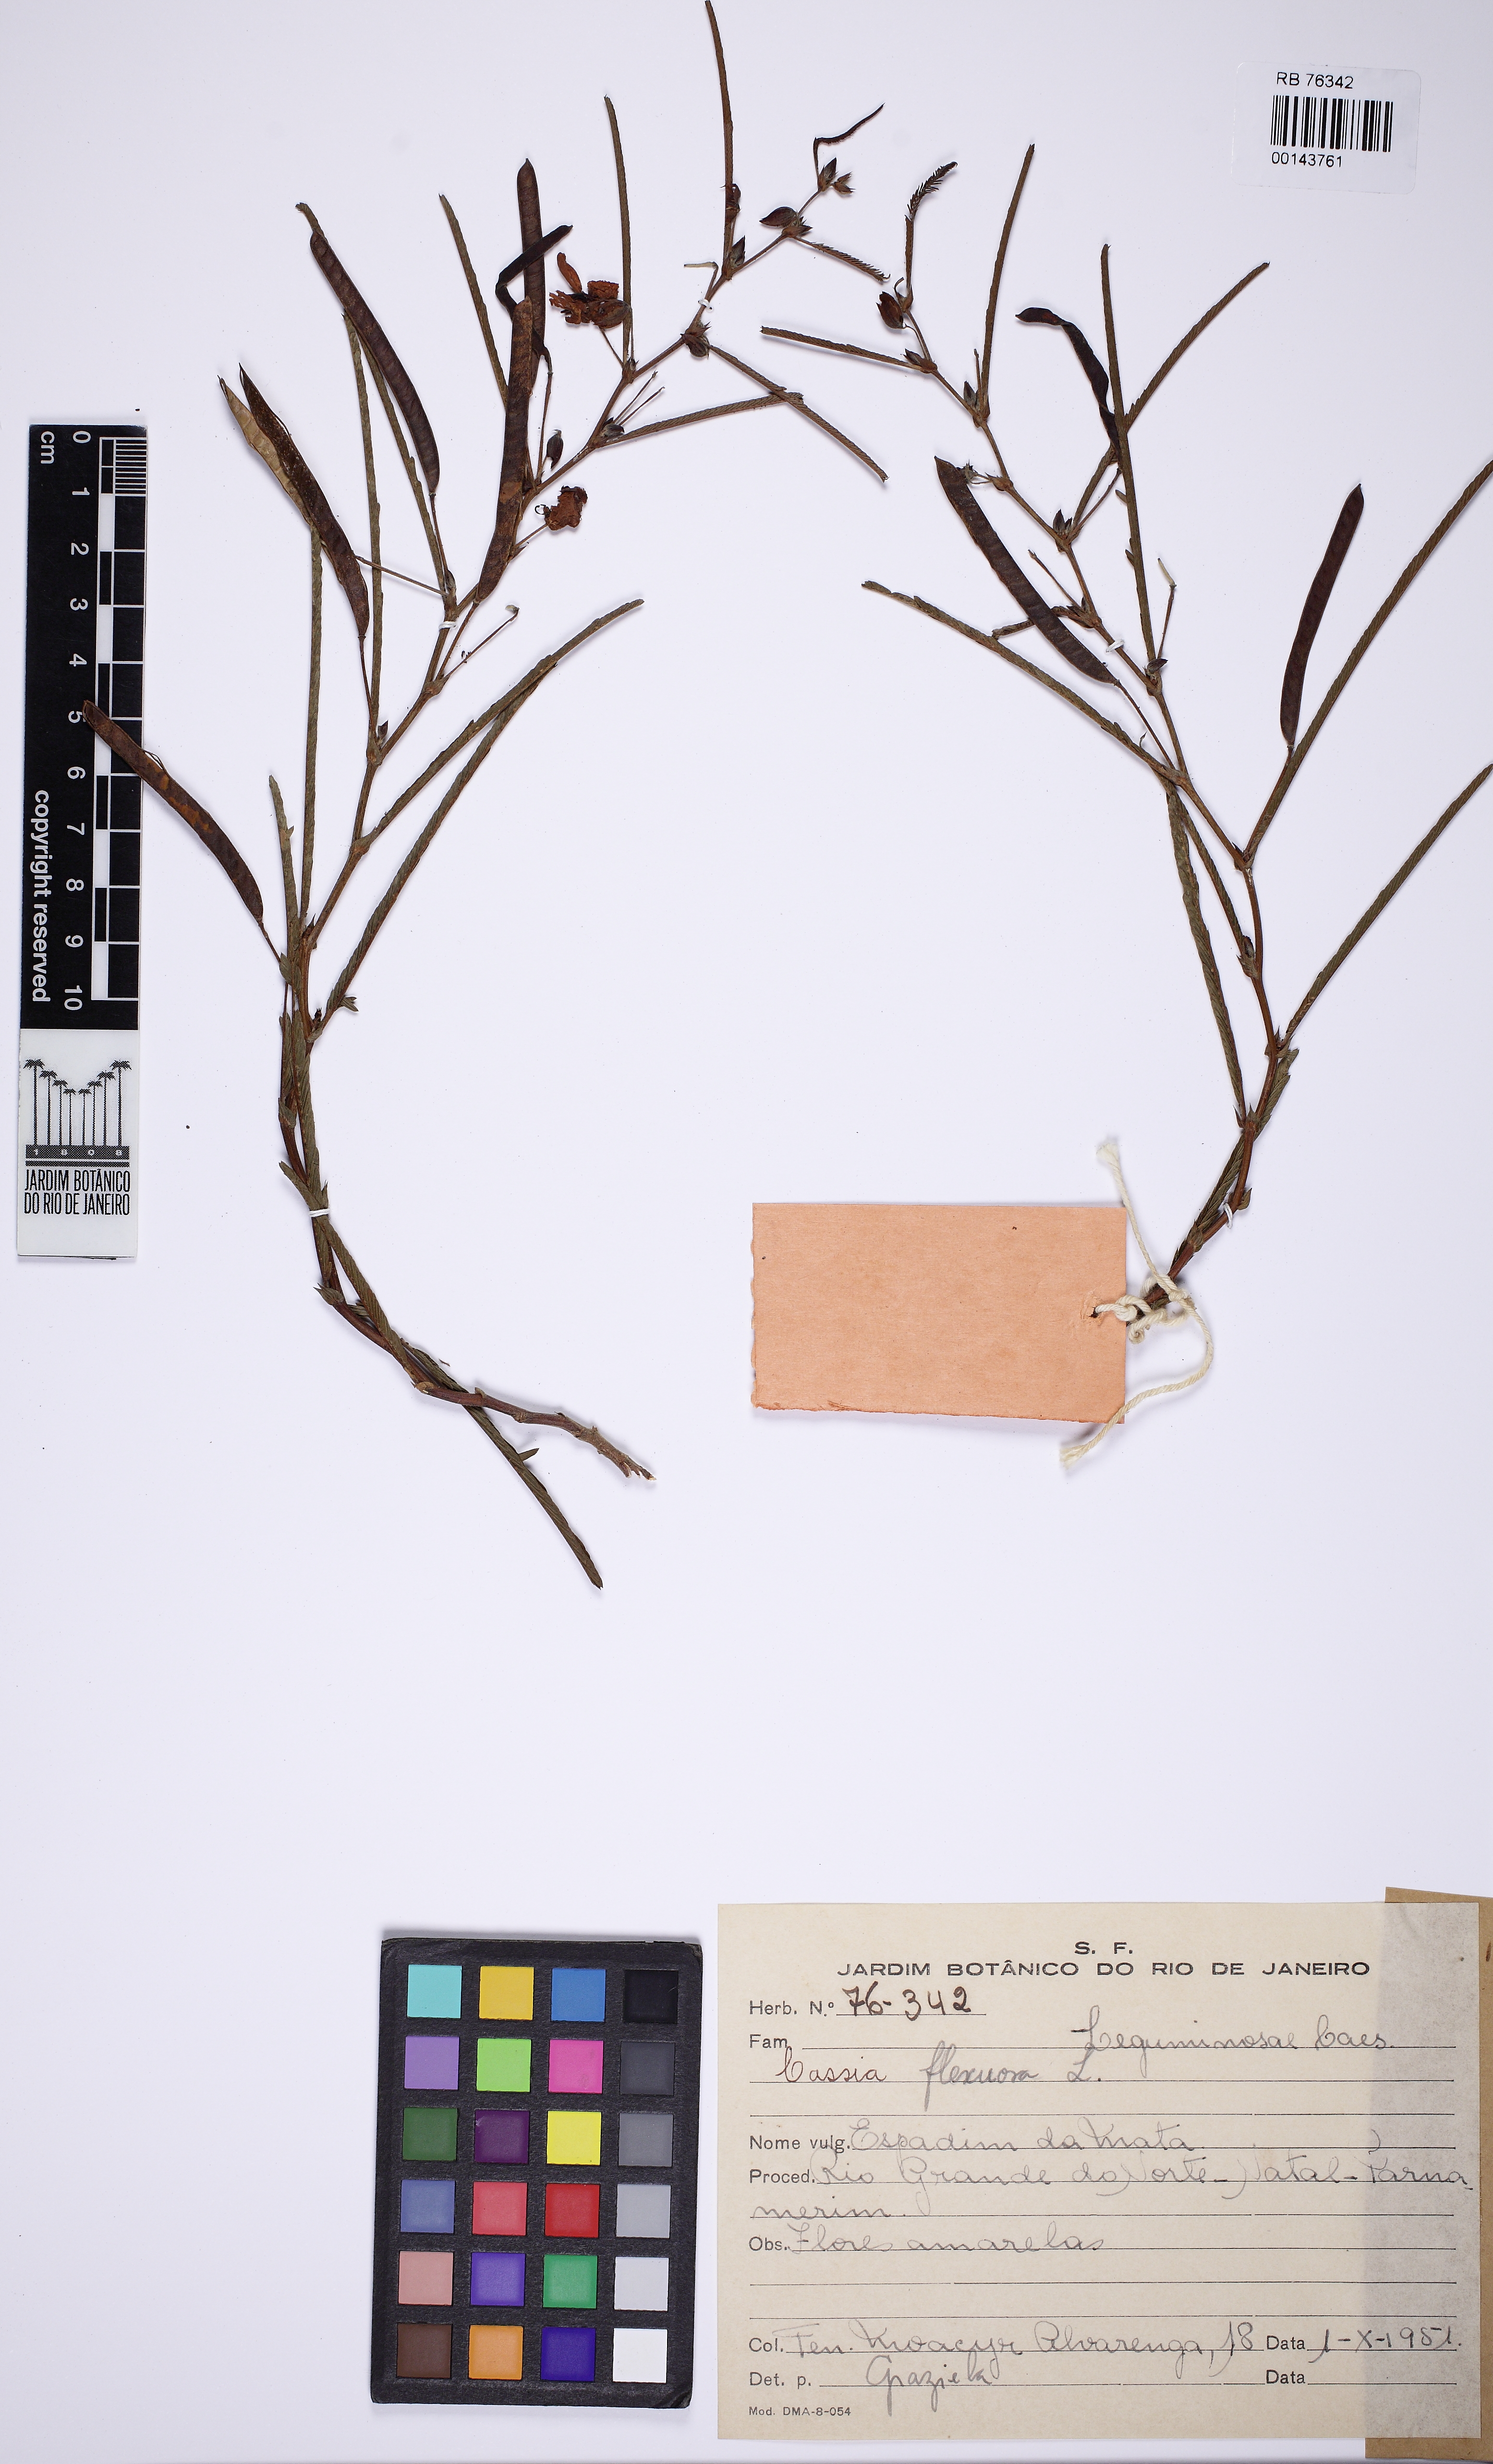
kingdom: Plantae
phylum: Tracheophyta
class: Magnoliopsida
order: Fabales
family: Fabaceae
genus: Chamaecrista
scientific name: Chamaecrista flexuosa
